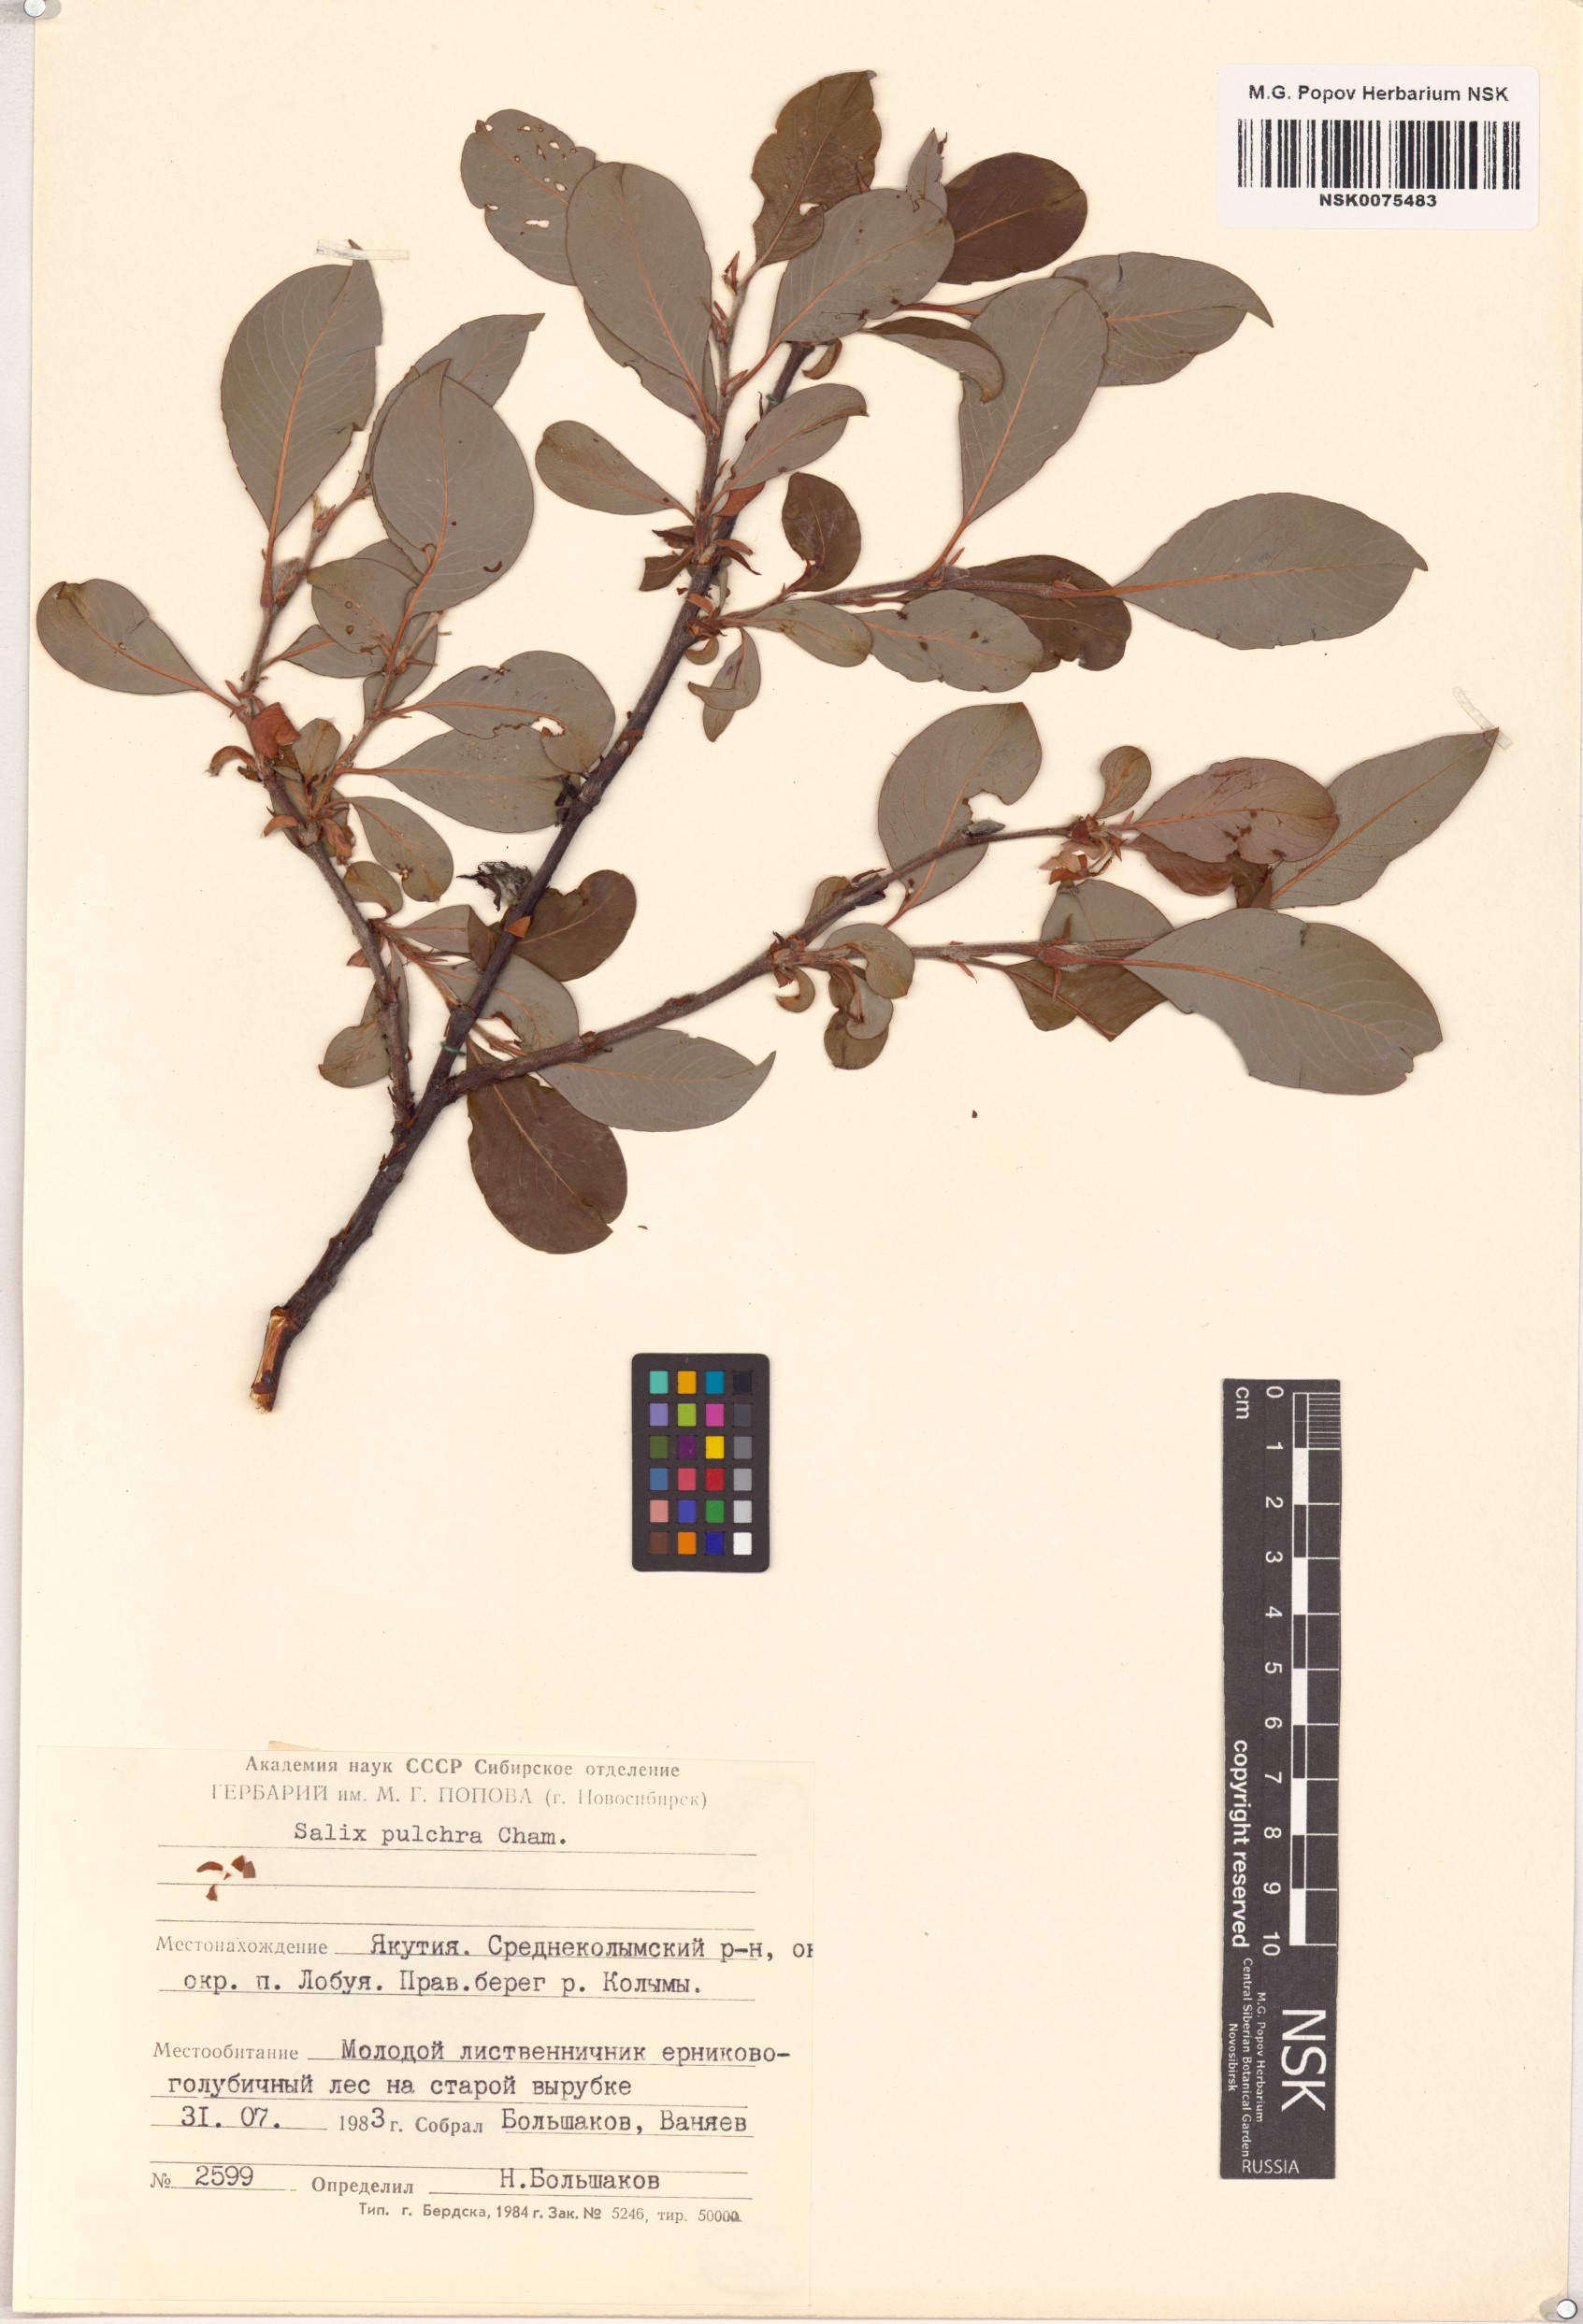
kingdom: Plantae
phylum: Tracheophyta
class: Magnoliopsida
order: Malpighiales
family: Salicaceae
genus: Salix
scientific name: Salix pulchra
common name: Diamond-leaved willow
